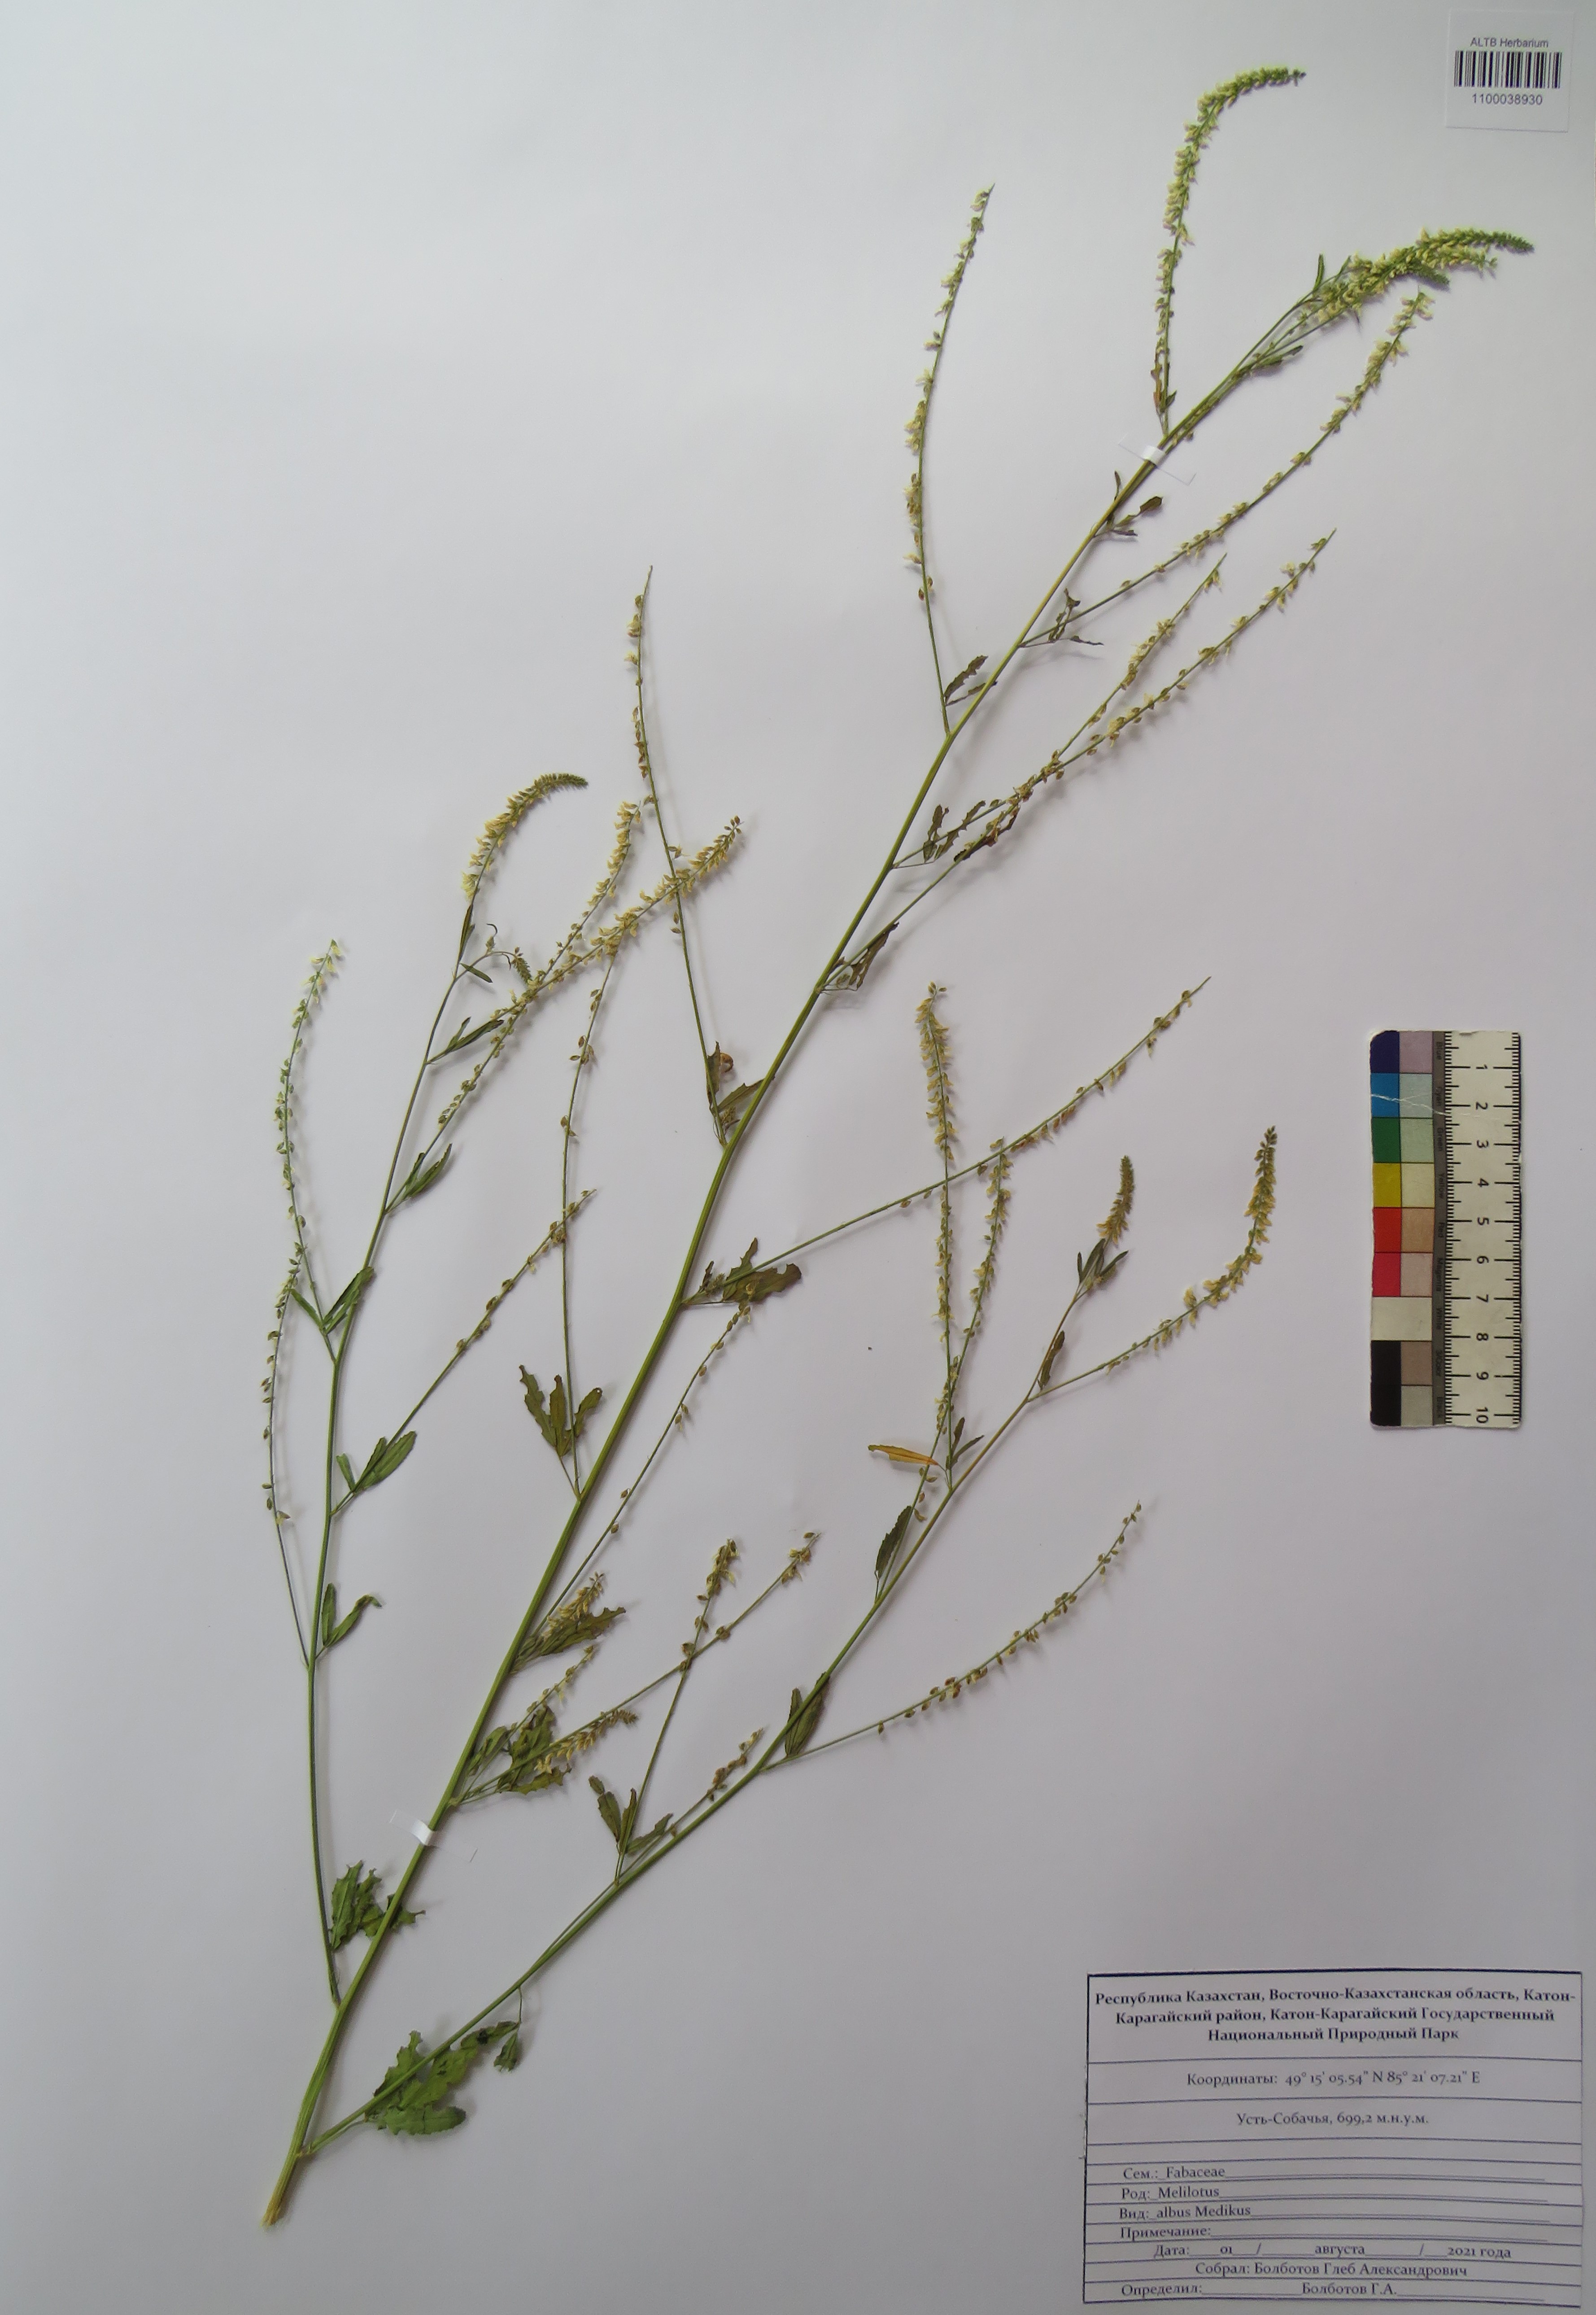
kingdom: Plantae
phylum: Tracheophyta
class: Magnoliopsida
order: Fabales
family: Fabaceae
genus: Melilotus
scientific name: Melilotus albus
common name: White melilot
